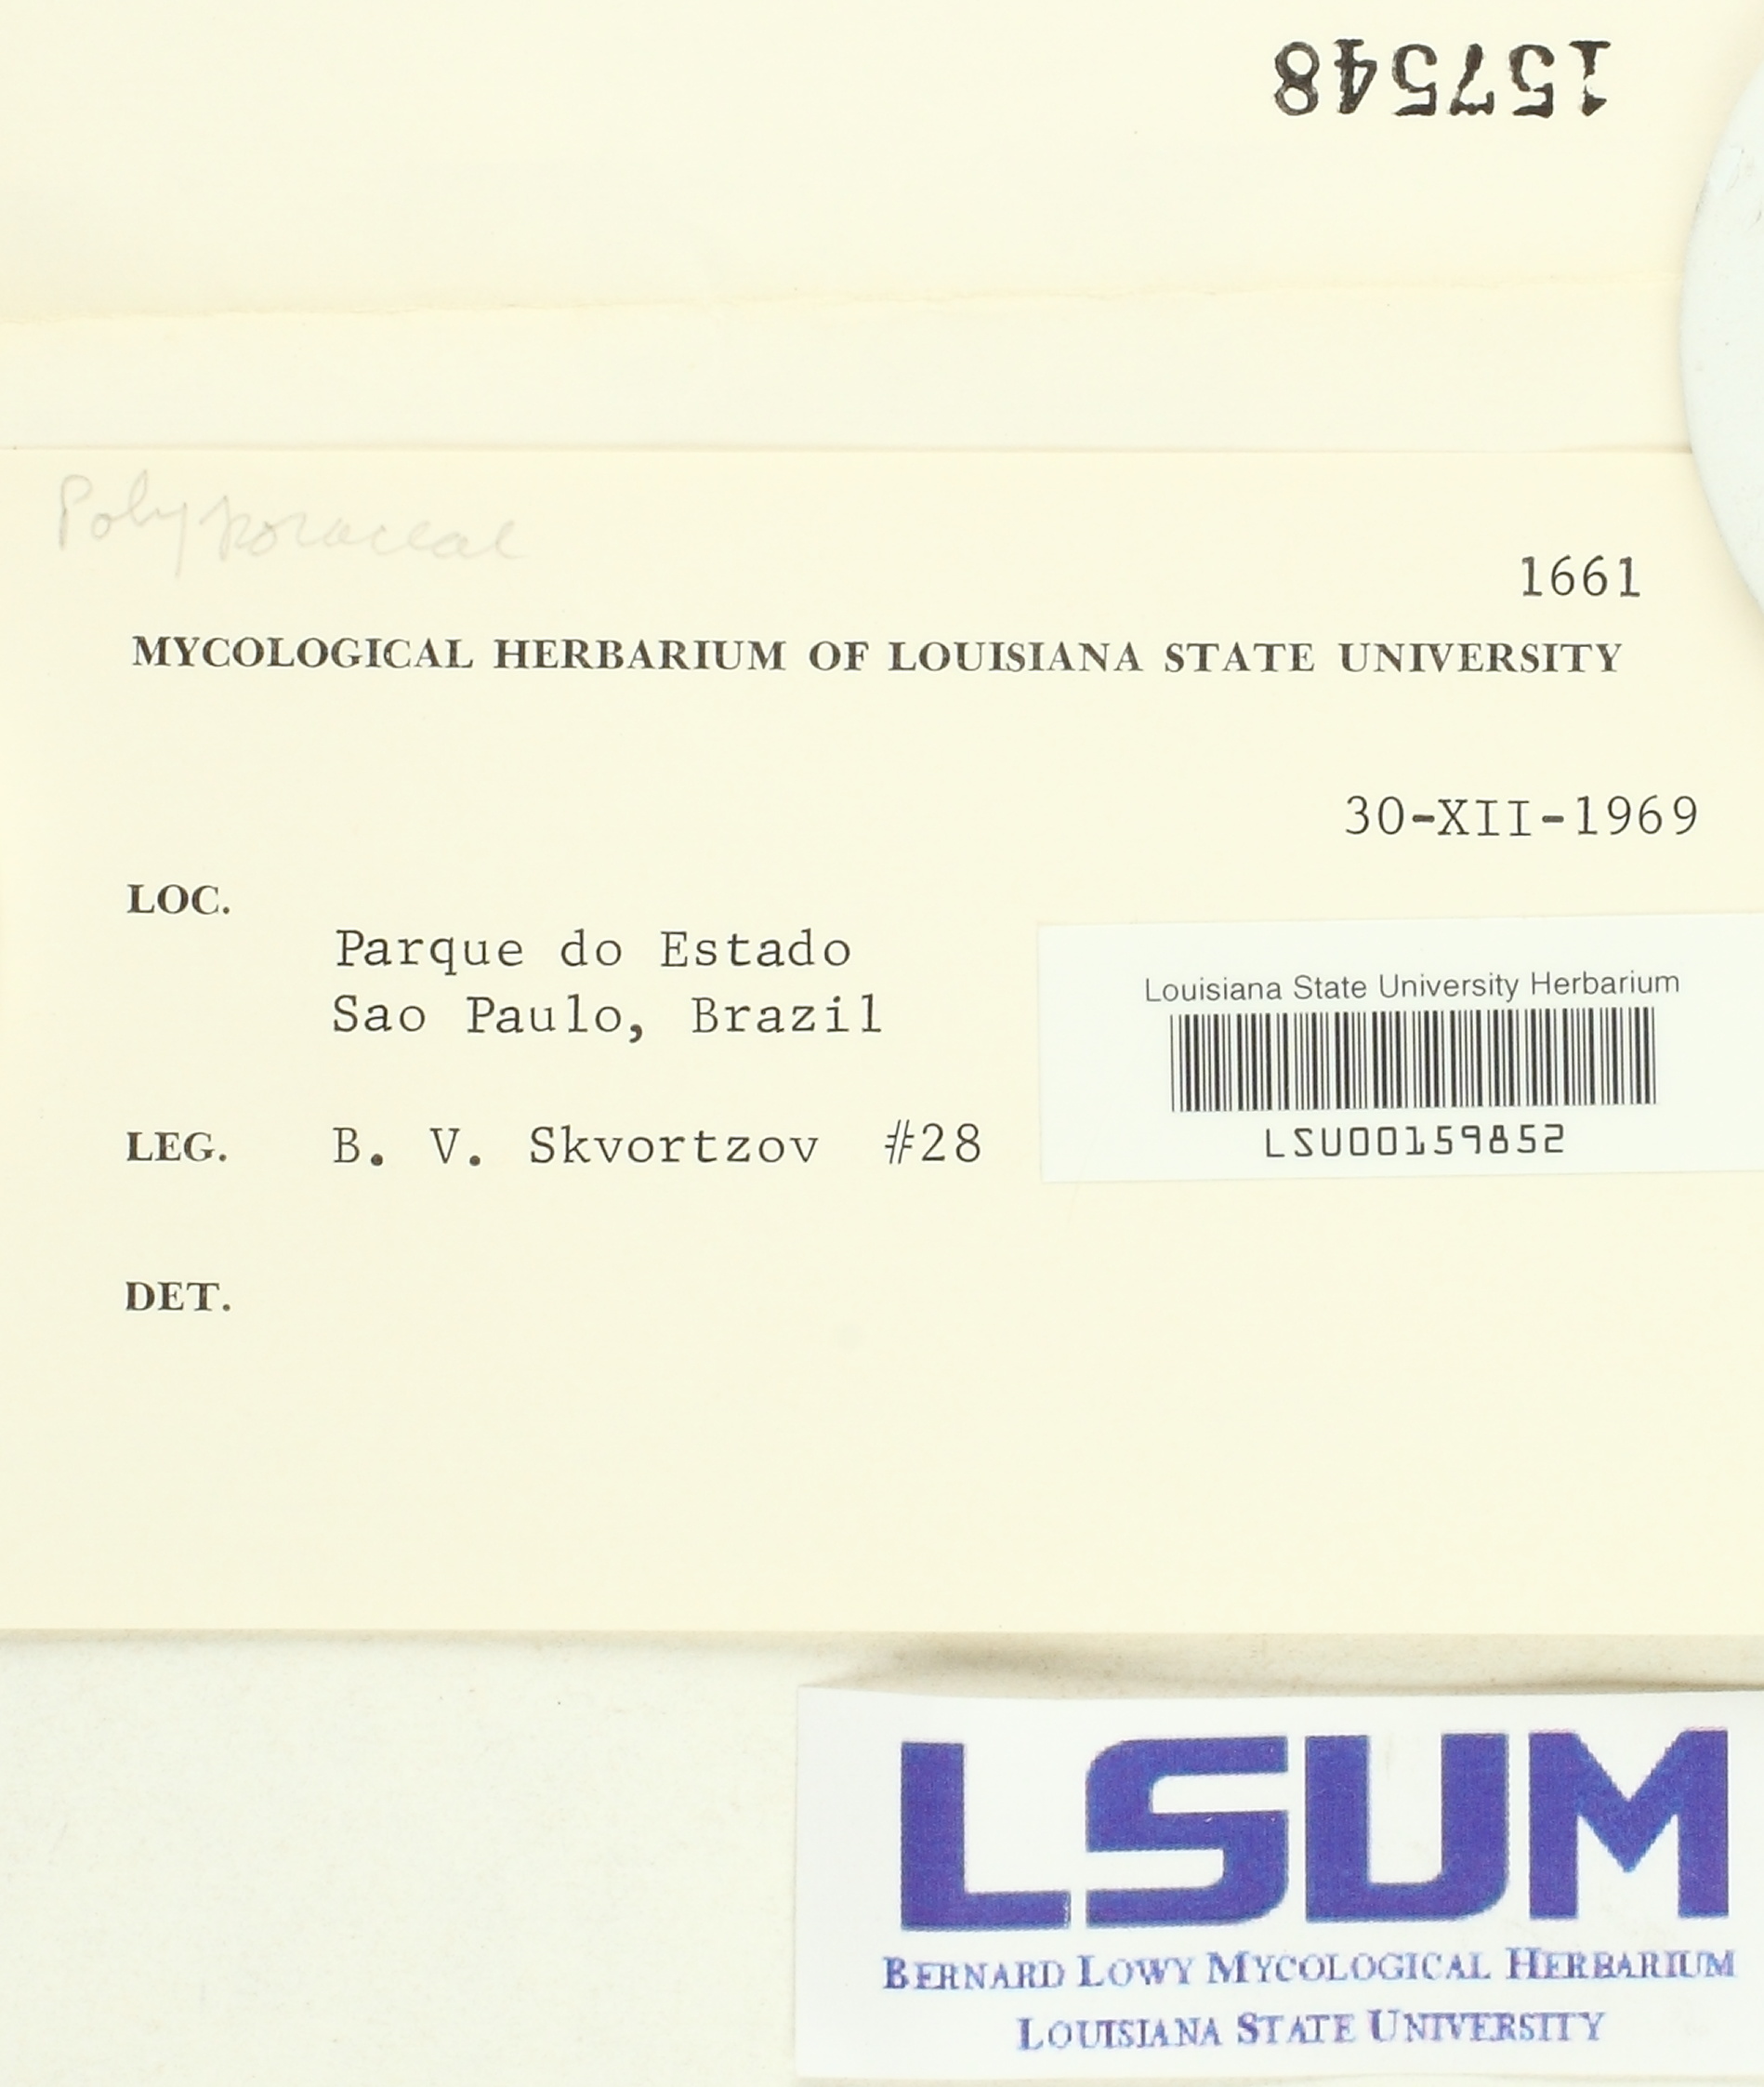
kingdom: Fungi
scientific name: Fungi
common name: Fungi
